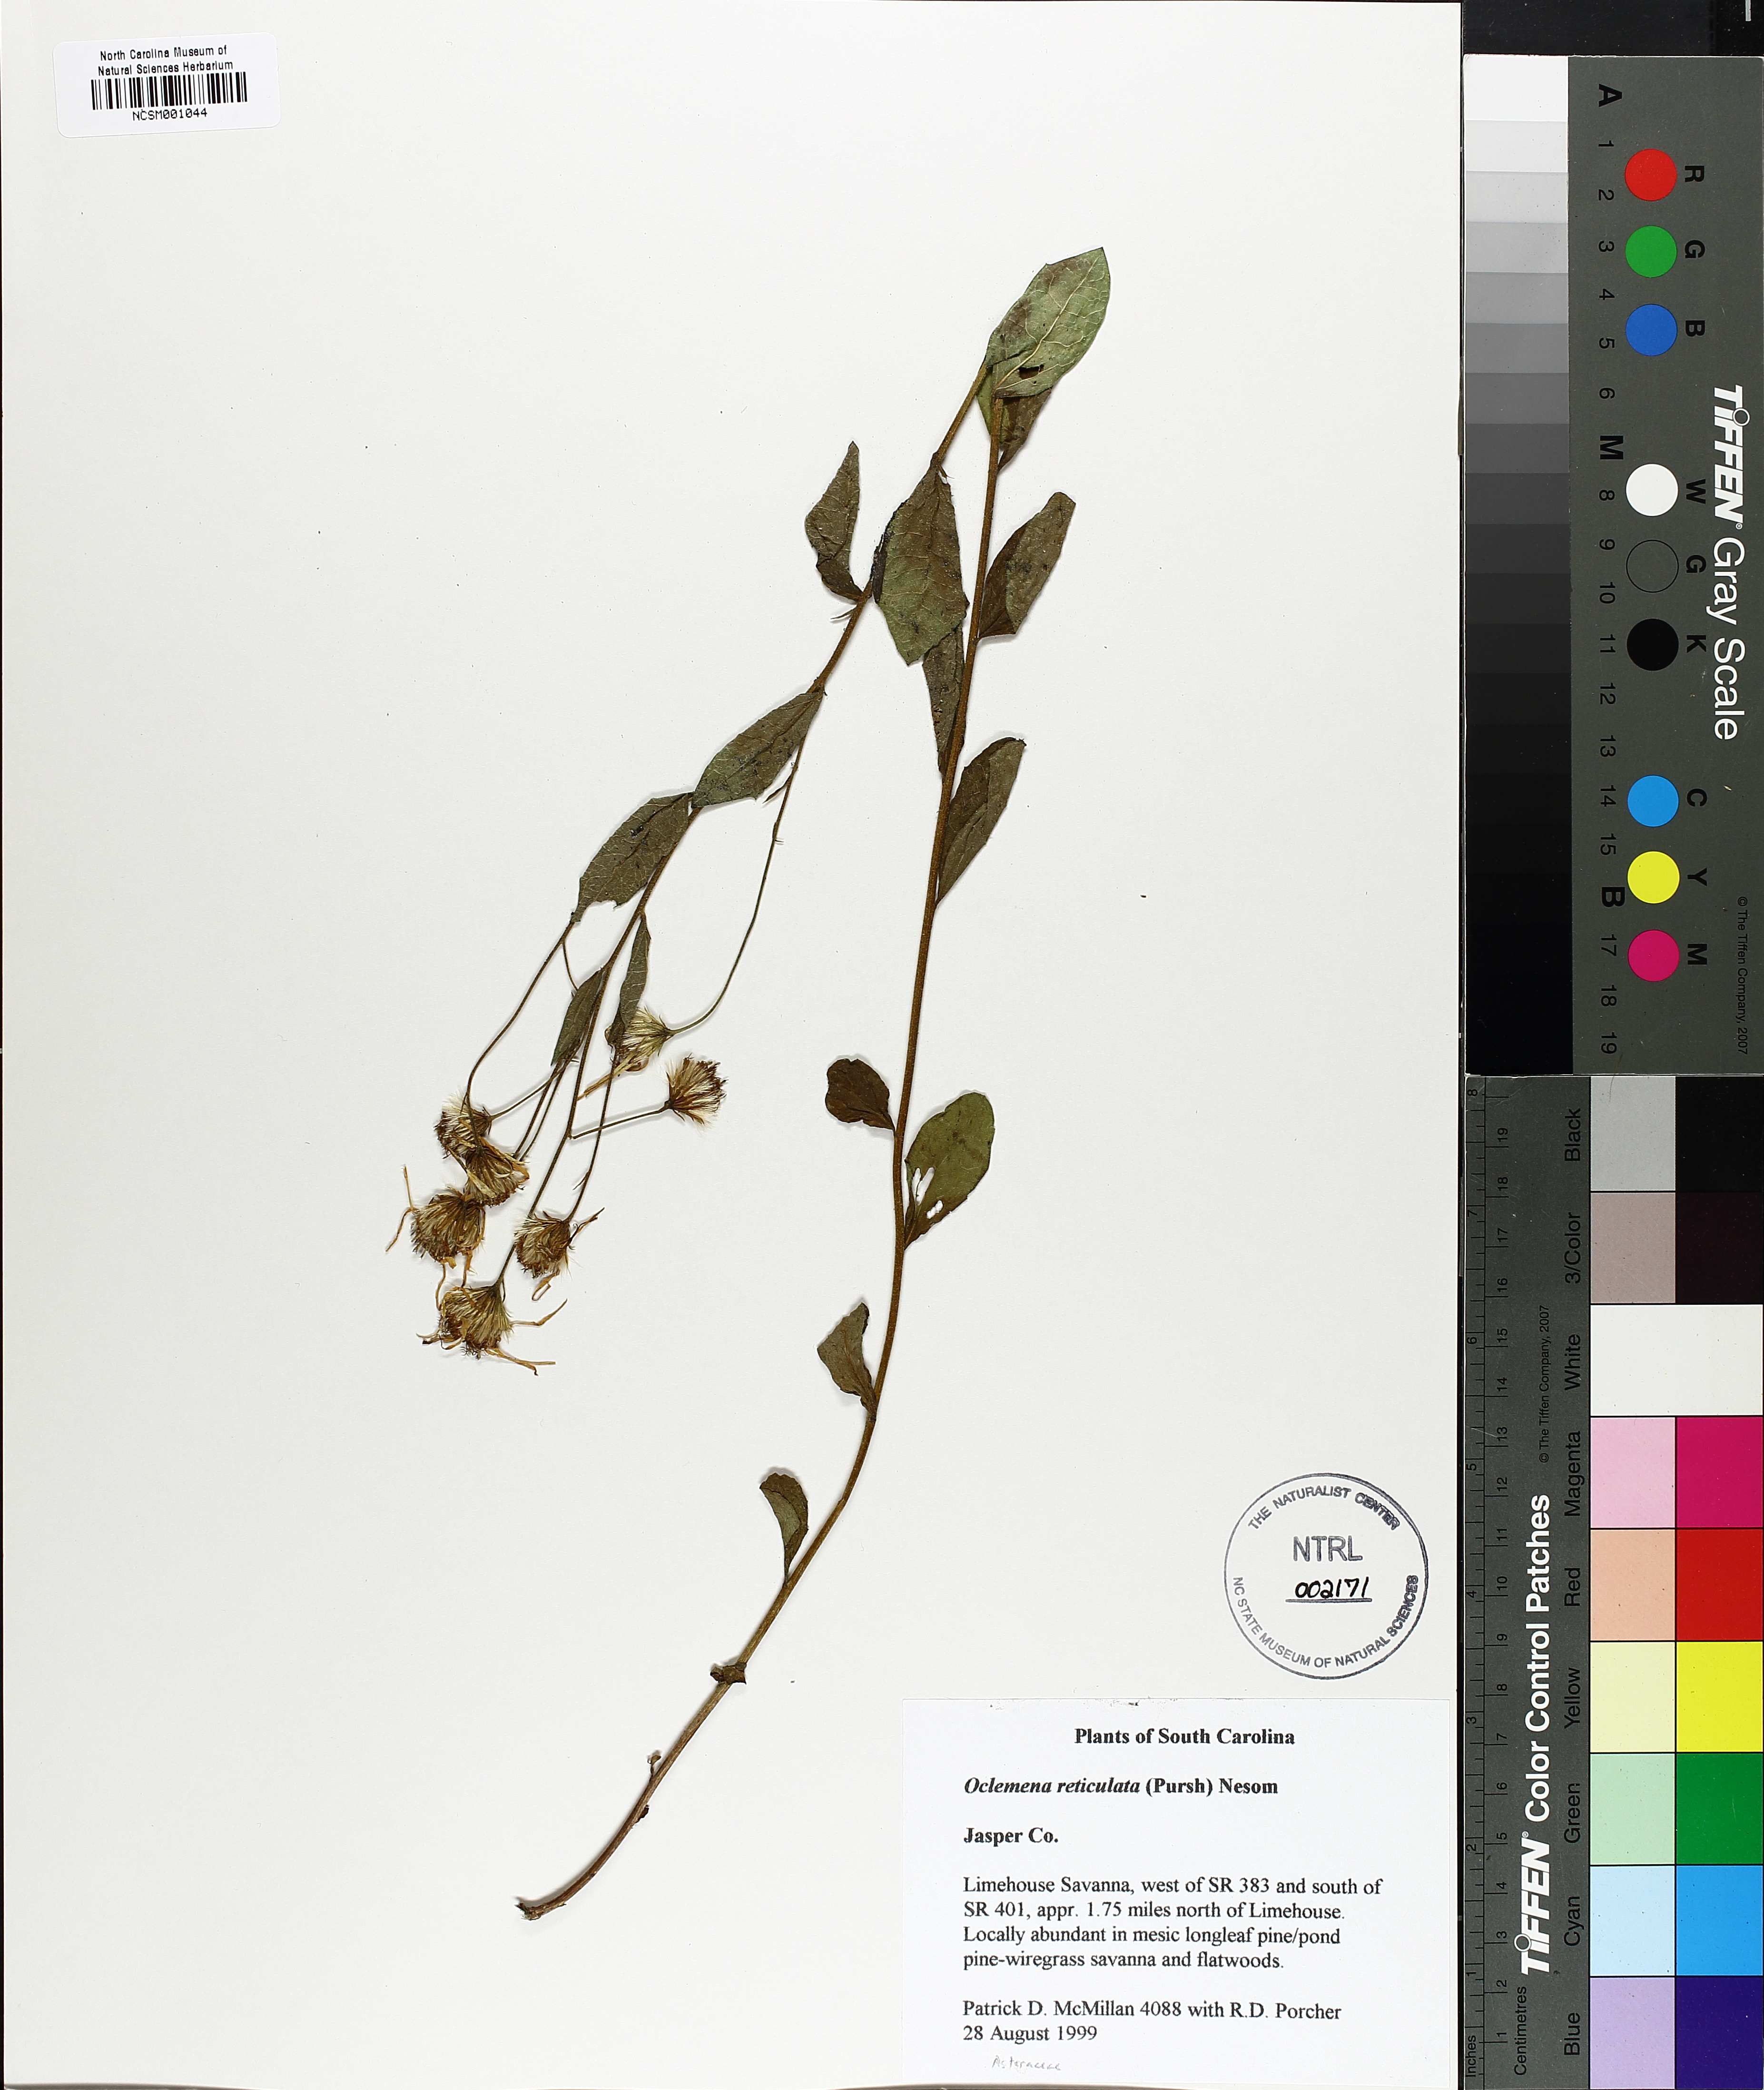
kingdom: Plantae
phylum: Tracheophyta
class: Magnoliopsida
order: Asterales
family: Asteraceae
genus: Oclemena
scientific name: Oclemena reticulata
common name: Pinebarren aster
